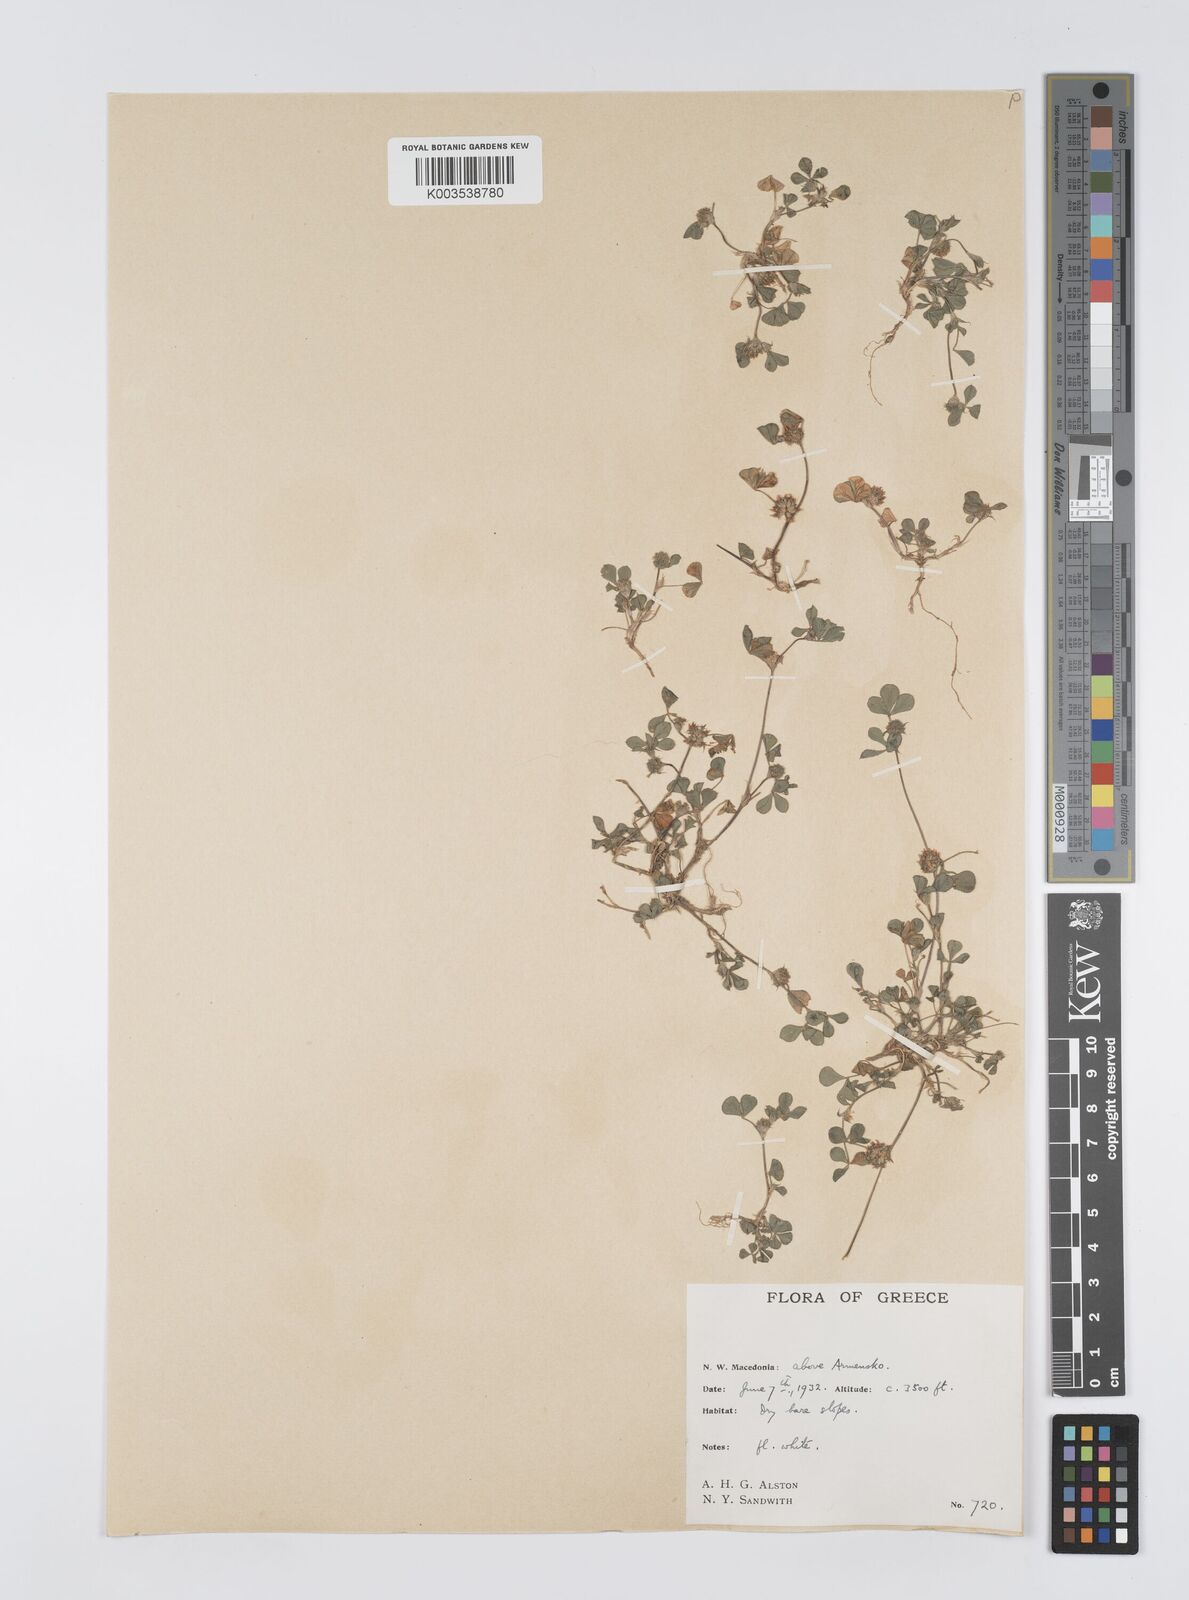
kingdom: Plantae
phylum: Tracheophyta
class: Magnoliopsida
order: Fabales
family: Fabaceae
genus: Trifolium
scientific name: Trifolium glomeratum
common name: Clustered clover
